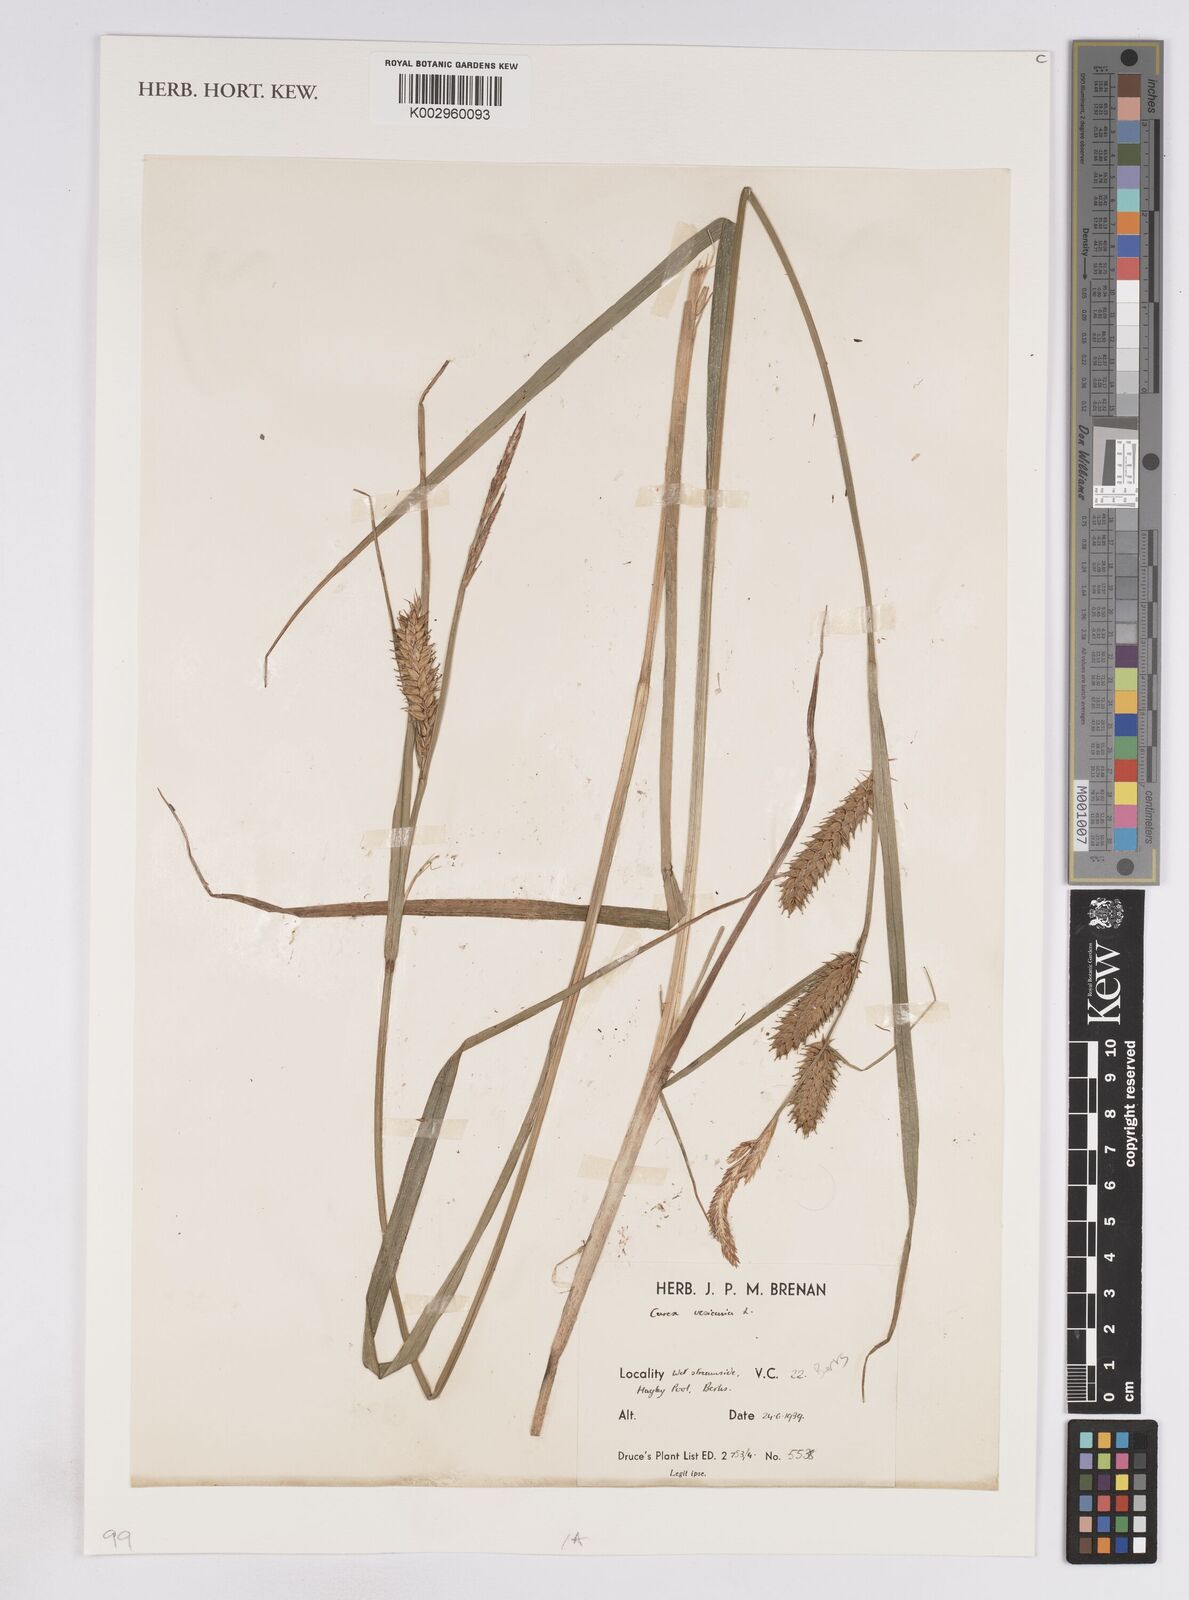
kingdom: Plantae
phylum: Tracheophyta
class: Liliopsida
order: Poales
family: Cyperaceae
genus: Carex
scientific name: Carex vesicaria
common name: Bladder-sedge
